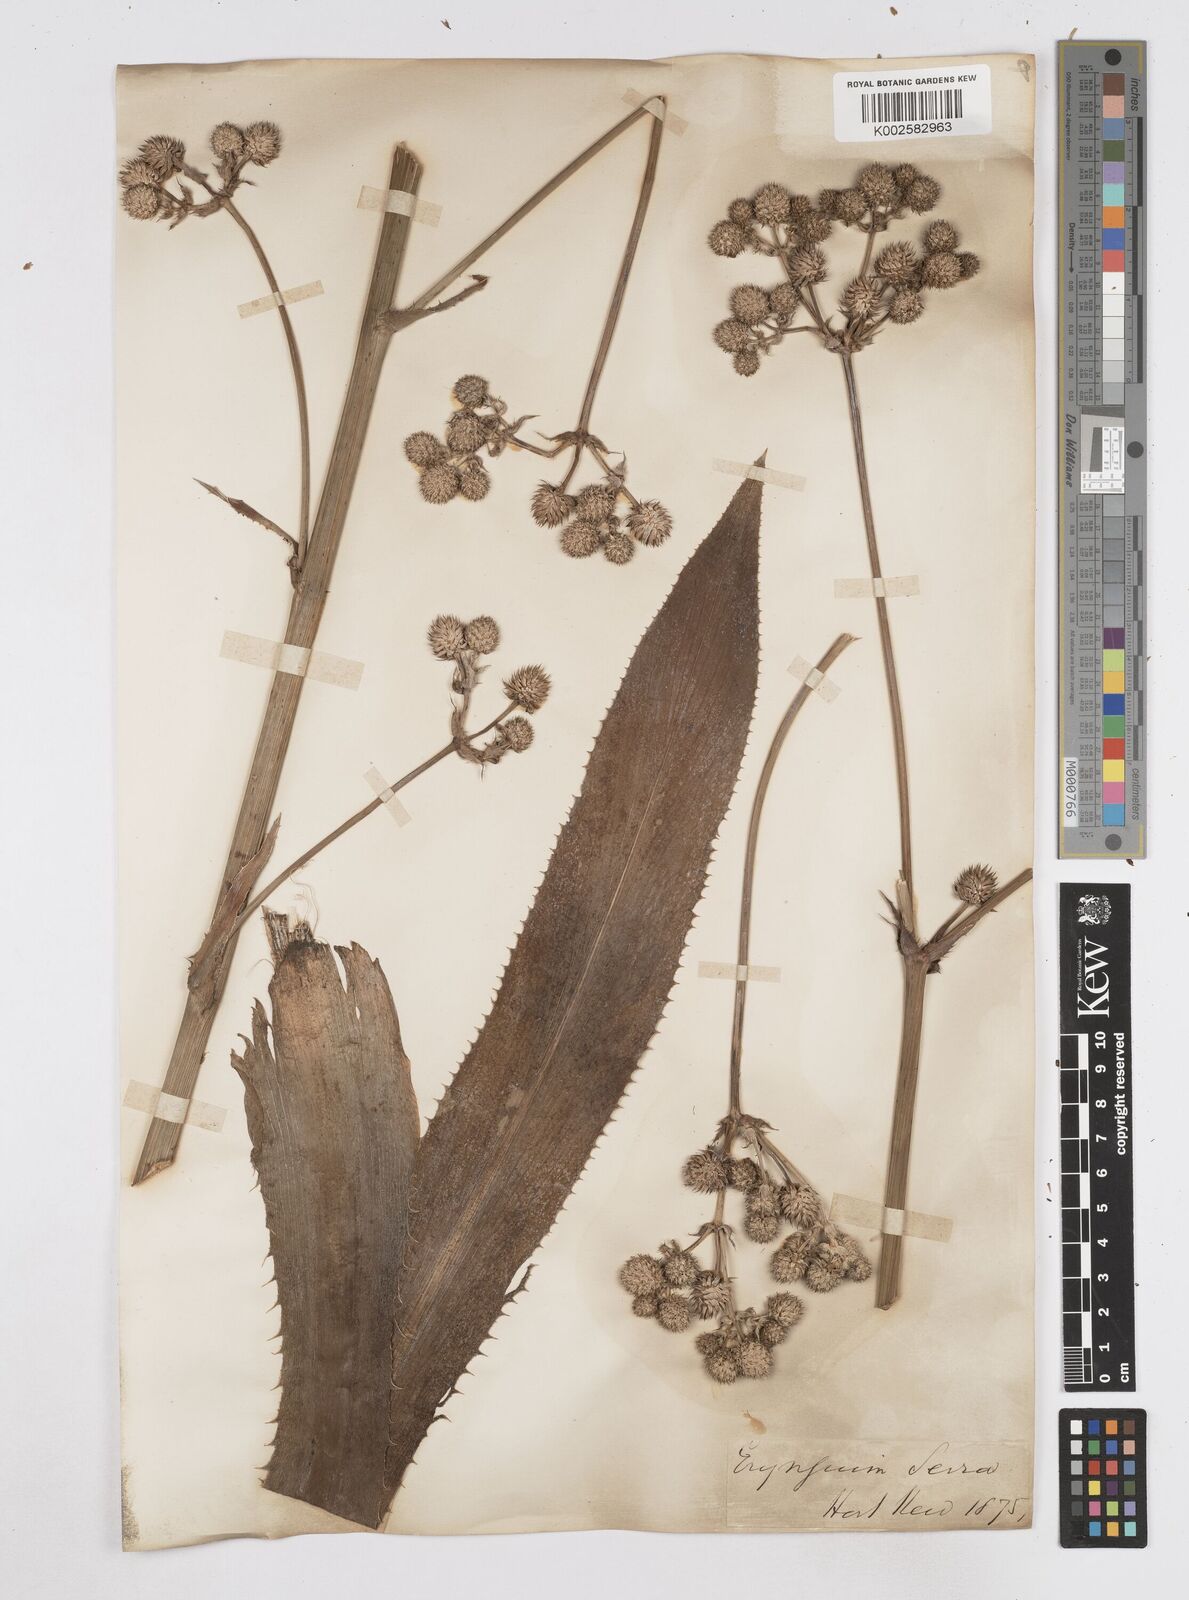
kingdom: Plantae
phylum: Tracheophyta
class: Magnoliopsida
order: Apiales
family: Apiaceae
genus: Eryngium
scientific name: Eryngium serra
